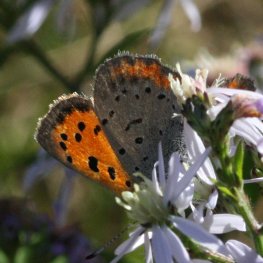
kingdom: Animalia
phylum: Arthropoda
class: Insecta
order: Lepidoptera
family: Lycaenidae
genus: Lycaena
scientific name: Lycaena phlaeas
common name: American Copper
